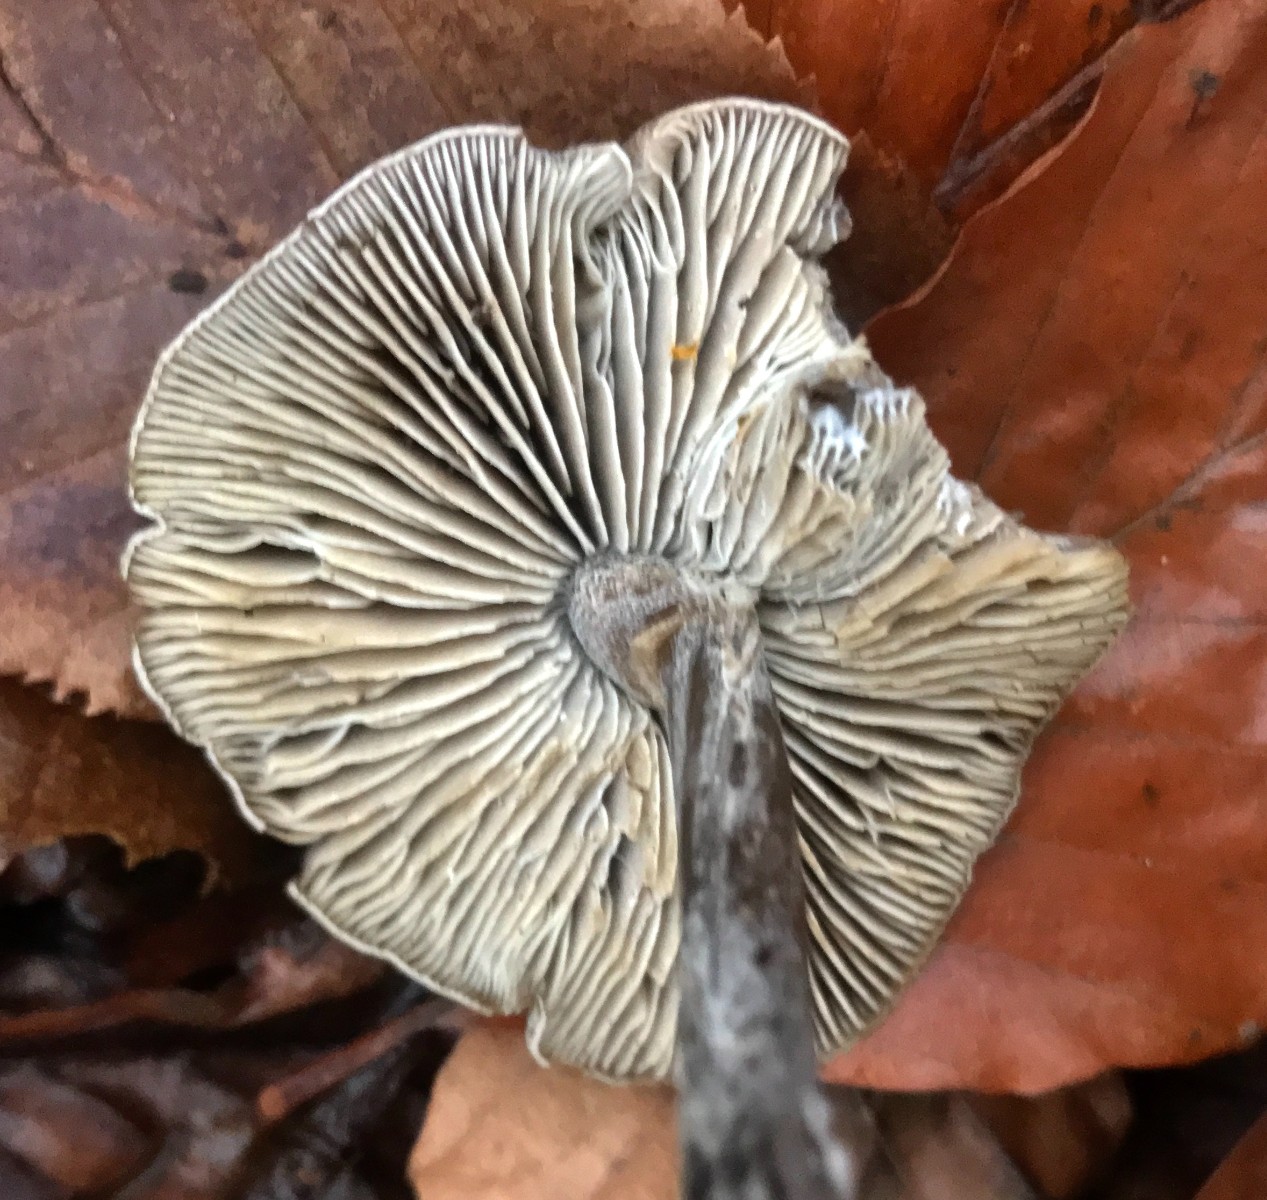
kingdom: Fungi
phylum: Basidiomycota
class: Agaricomycetes
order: Agaricales
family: Tricholomataceae
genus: Tricholoma
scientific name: Tricholoma scalpturatum
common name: gulplettet ridderhat
